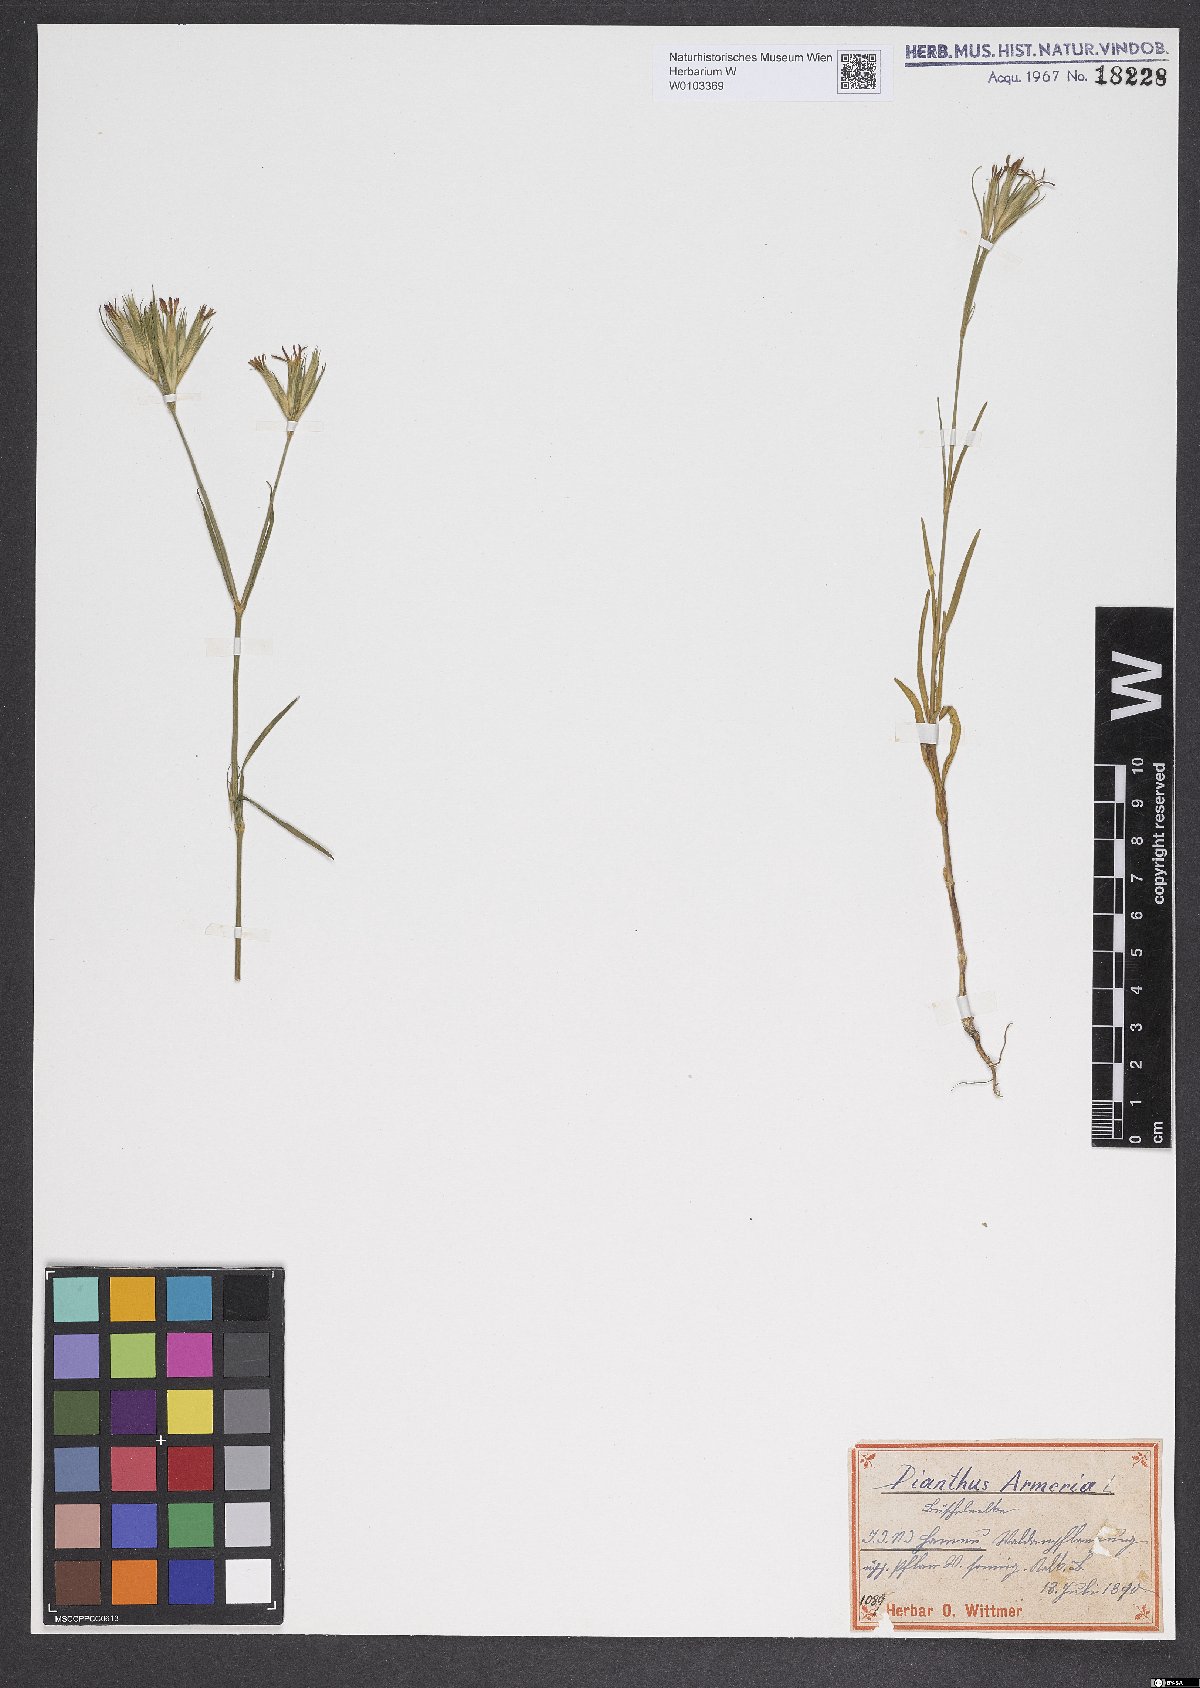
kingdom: Plantae
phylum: Tracheophyta
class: Magnoliopsida
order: Caryophyllales
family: Caryophyllaceae
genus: Dianthus
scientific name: Dianthus armeria
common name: Deptford pink
